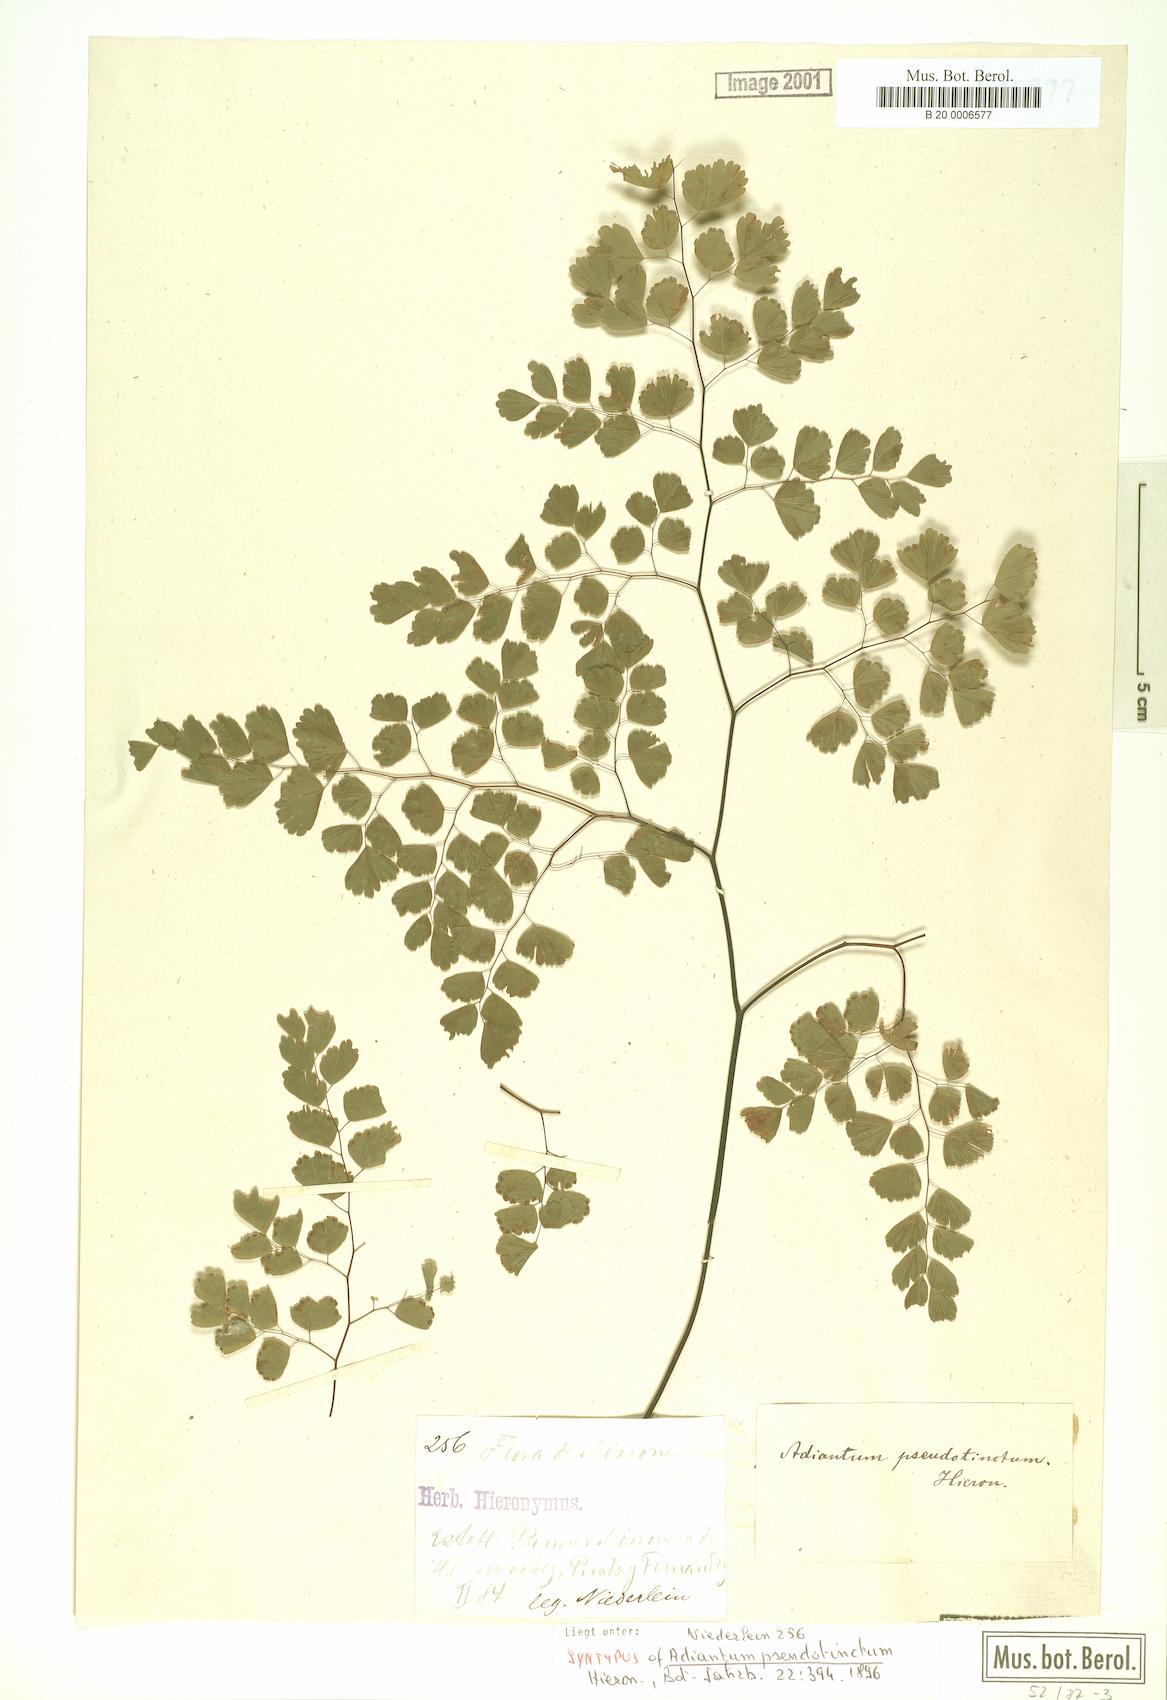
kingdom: Plantae
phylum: Tracheophyta
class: Polypodiopsida
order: Polypodiales
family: Pteridaceae
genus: Adiantum
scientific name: Adiantum pseudotinctum
